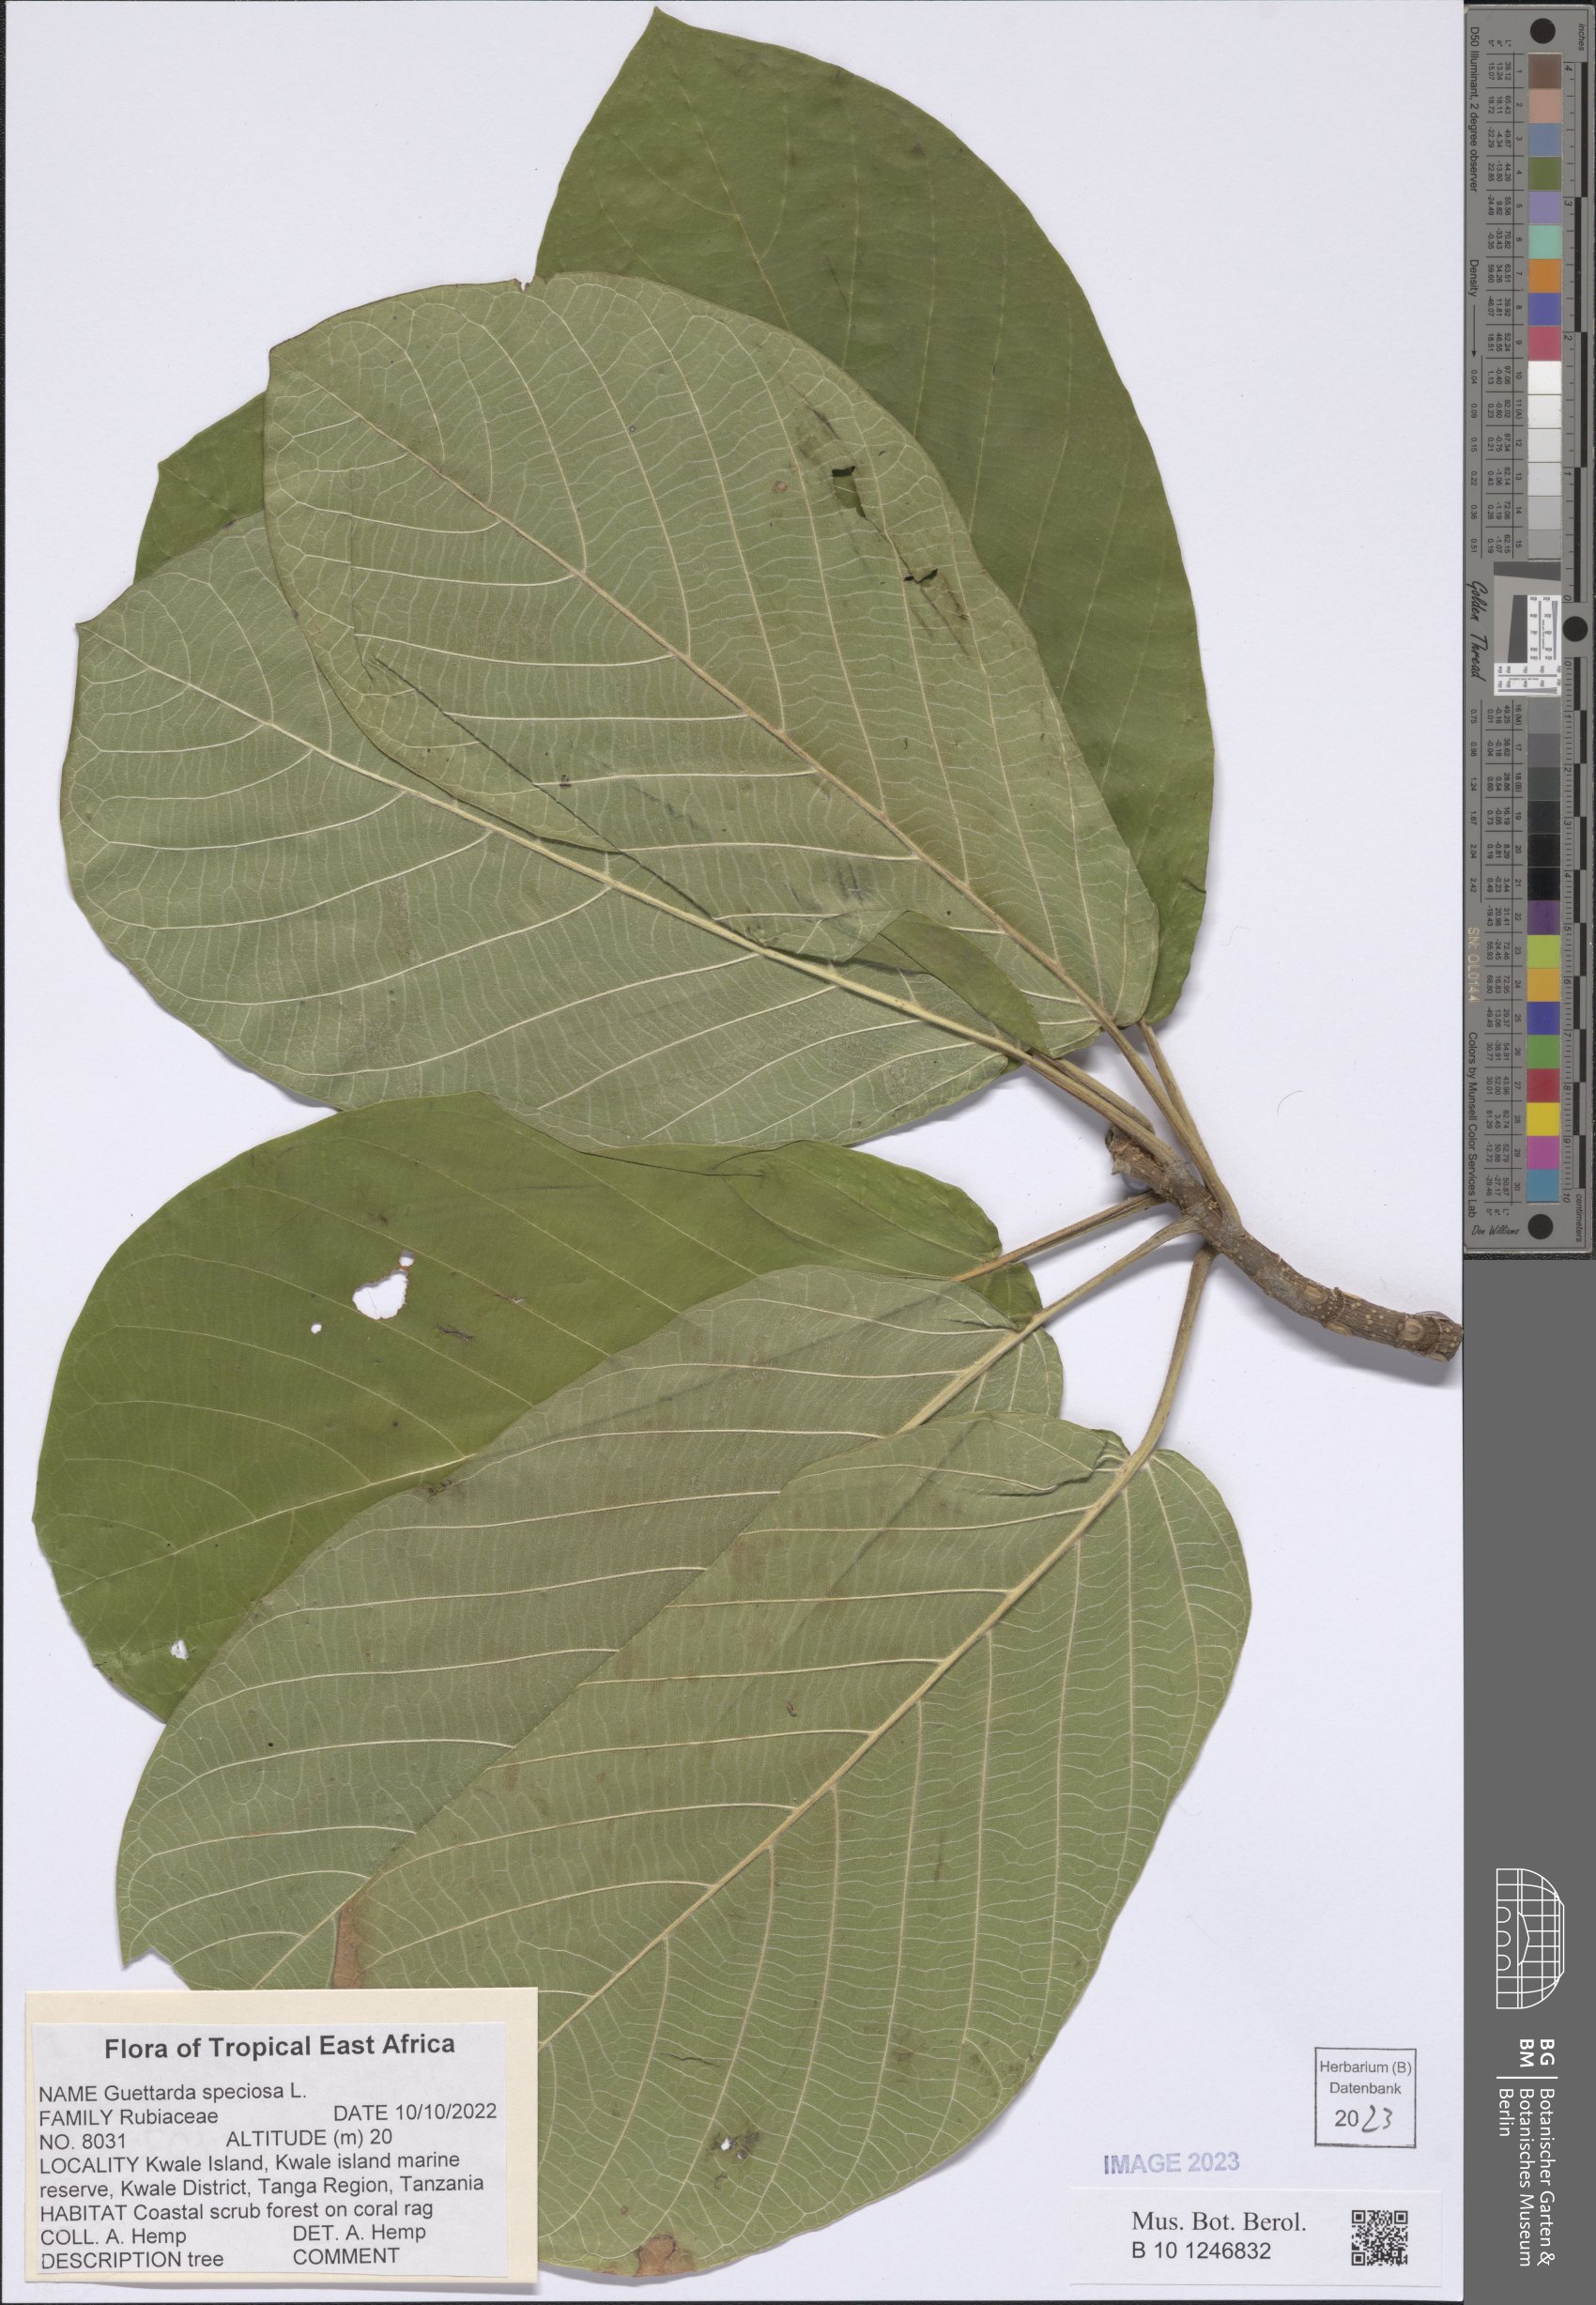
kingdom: Plantae
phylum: Tracheophyta
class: Magnoliopsida
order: Gentianales
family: Rubiaceae
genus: Guettarda
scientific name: Guettarda speciosa
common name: Sea randa
